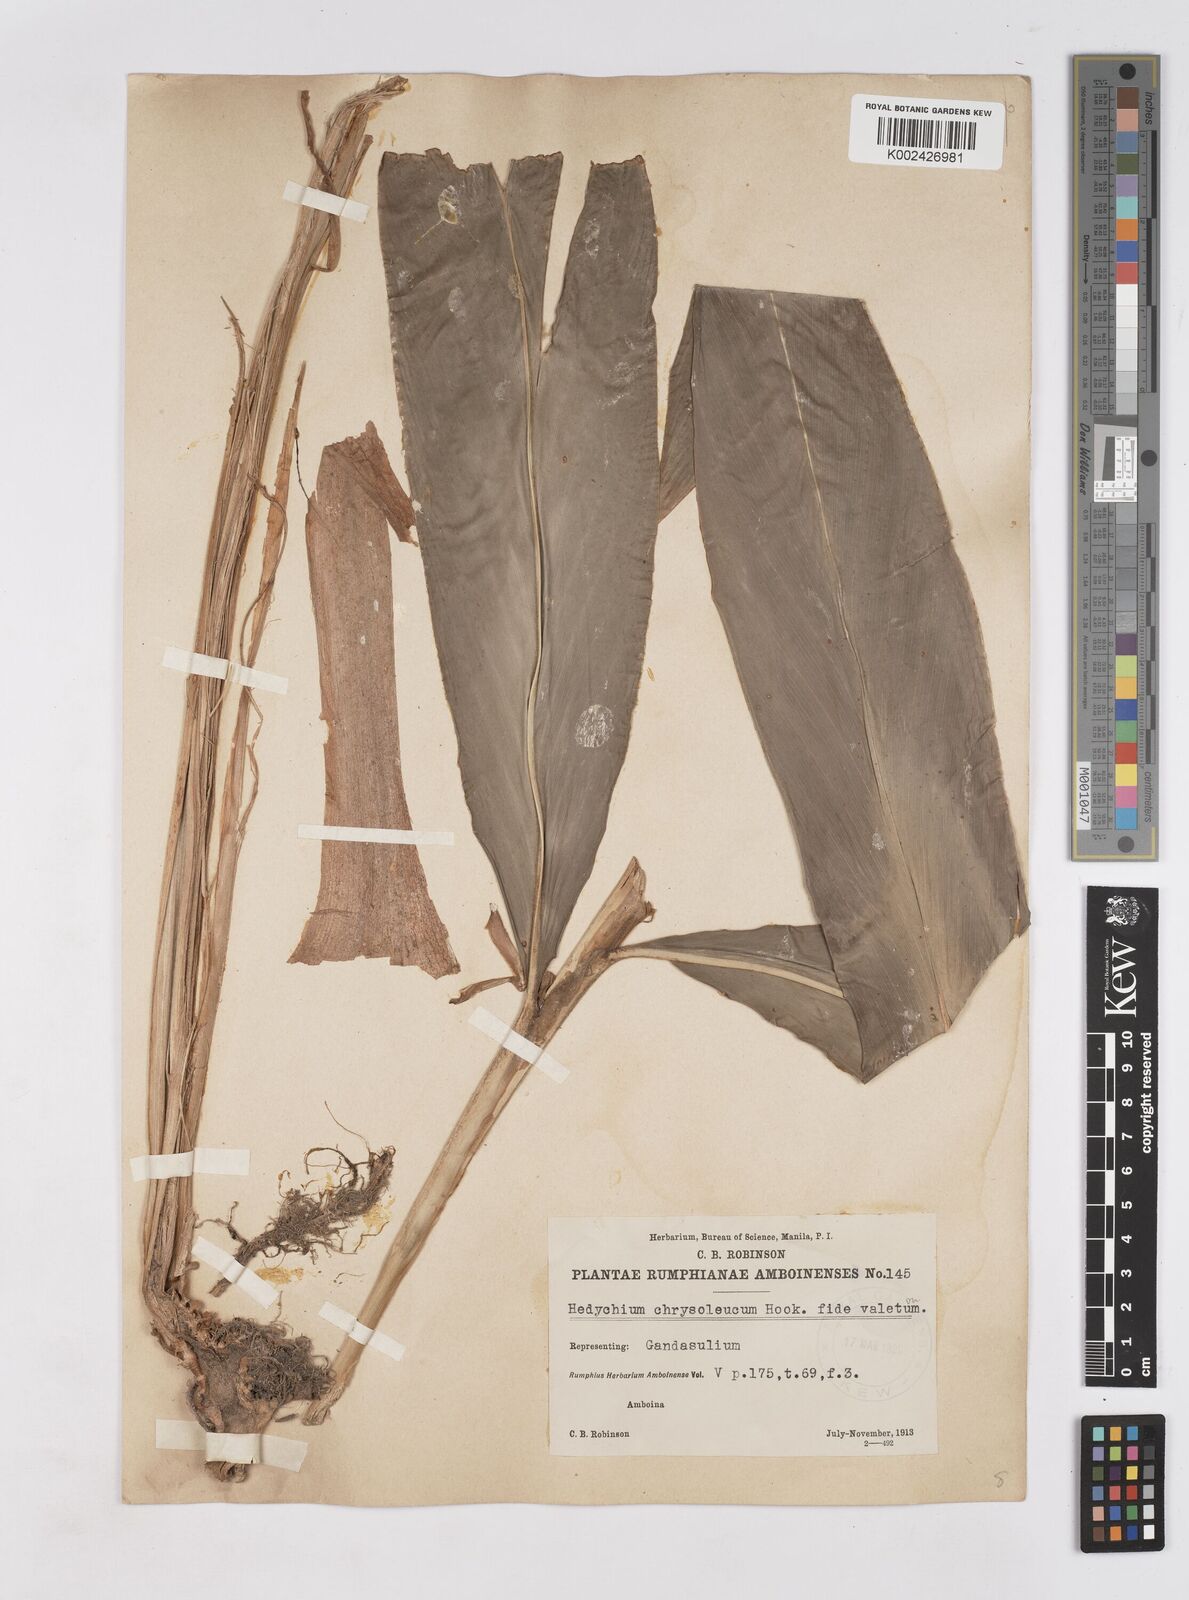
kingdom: Plantae
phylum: Tracheophyta
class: Liliopsida
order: Zingiberales
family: Zingiberaceae
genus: Hedychium
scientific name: Hedychium coronarium
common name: White garland-lily
